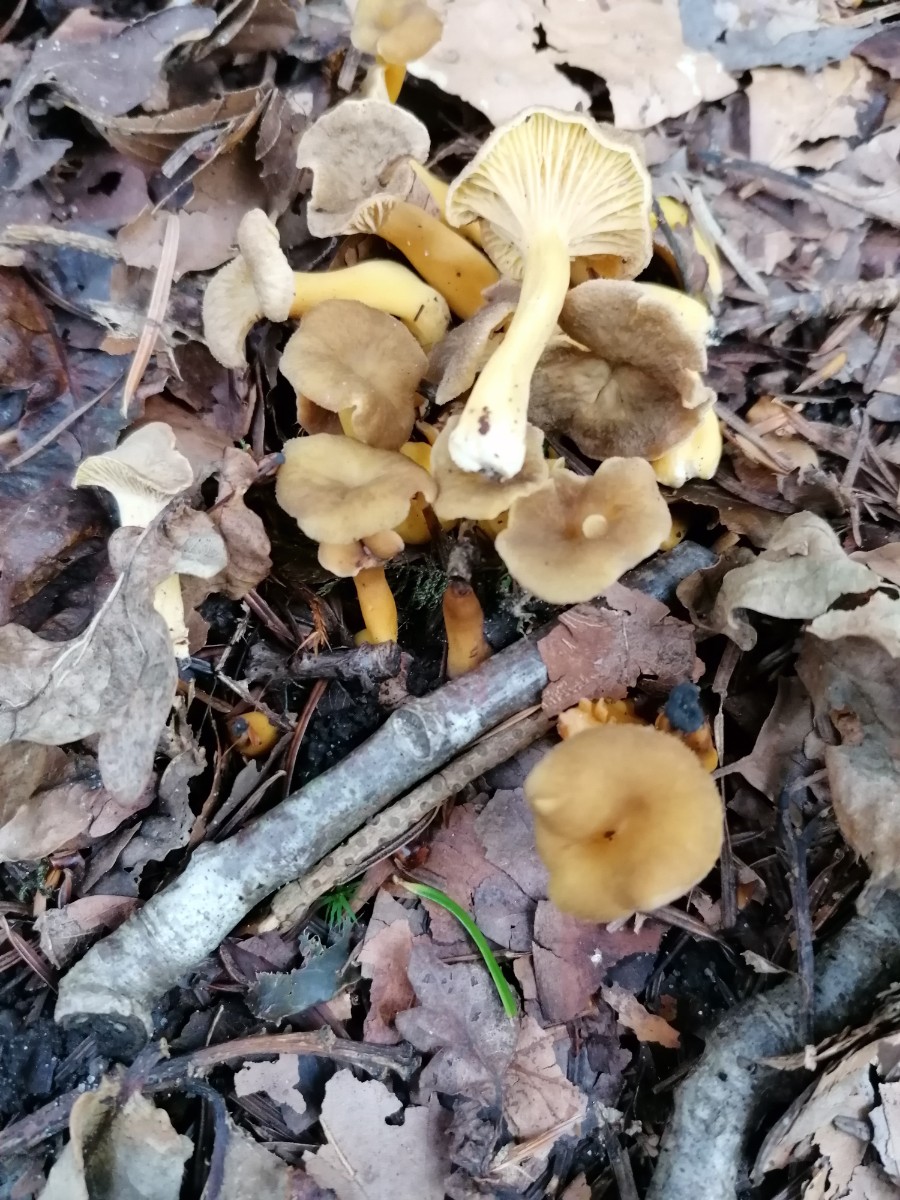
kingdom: Fungi
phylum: Basidiomycota
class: Agaricomycetes
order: Cantharellales
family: Hydnaceae
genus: Craterellus
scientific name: Craterellus tubaeformis
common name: tragt-kantarel
